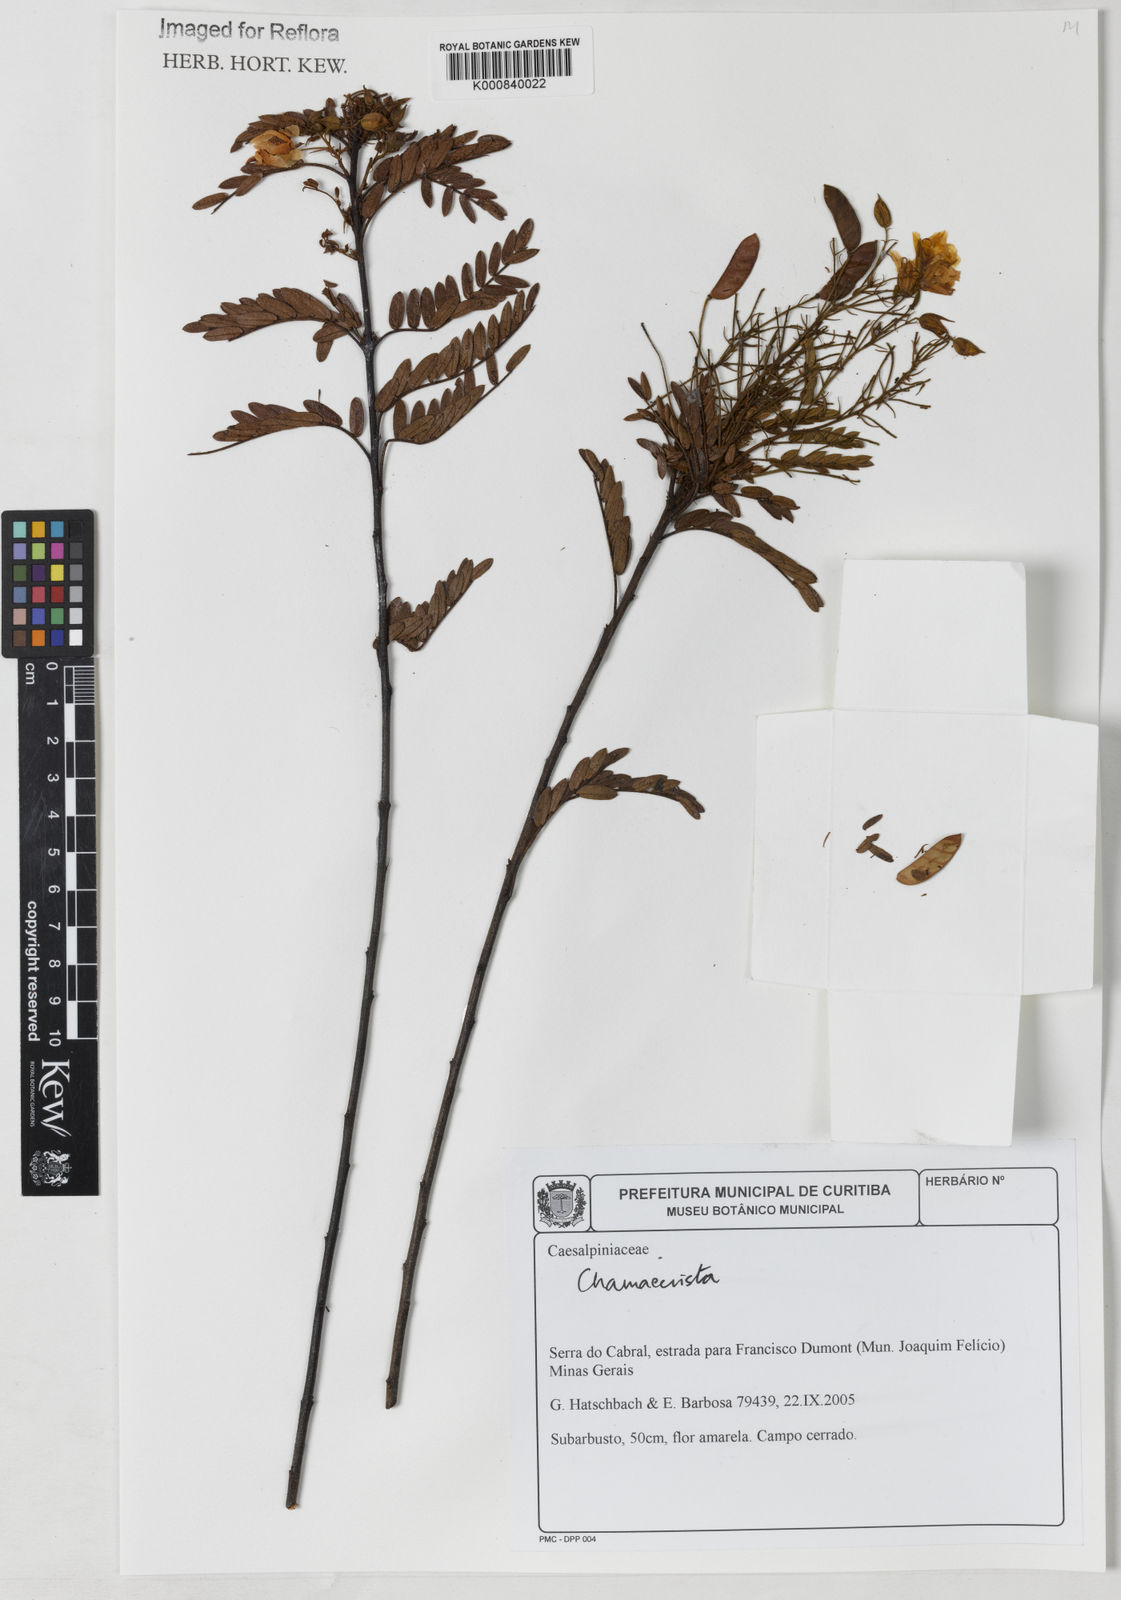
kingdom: Plantae
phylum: Tracheophyta
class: Magnoliopsida
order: Fabales
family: Fabaceae
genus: Chamaecrista
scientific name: Chamaecrista
